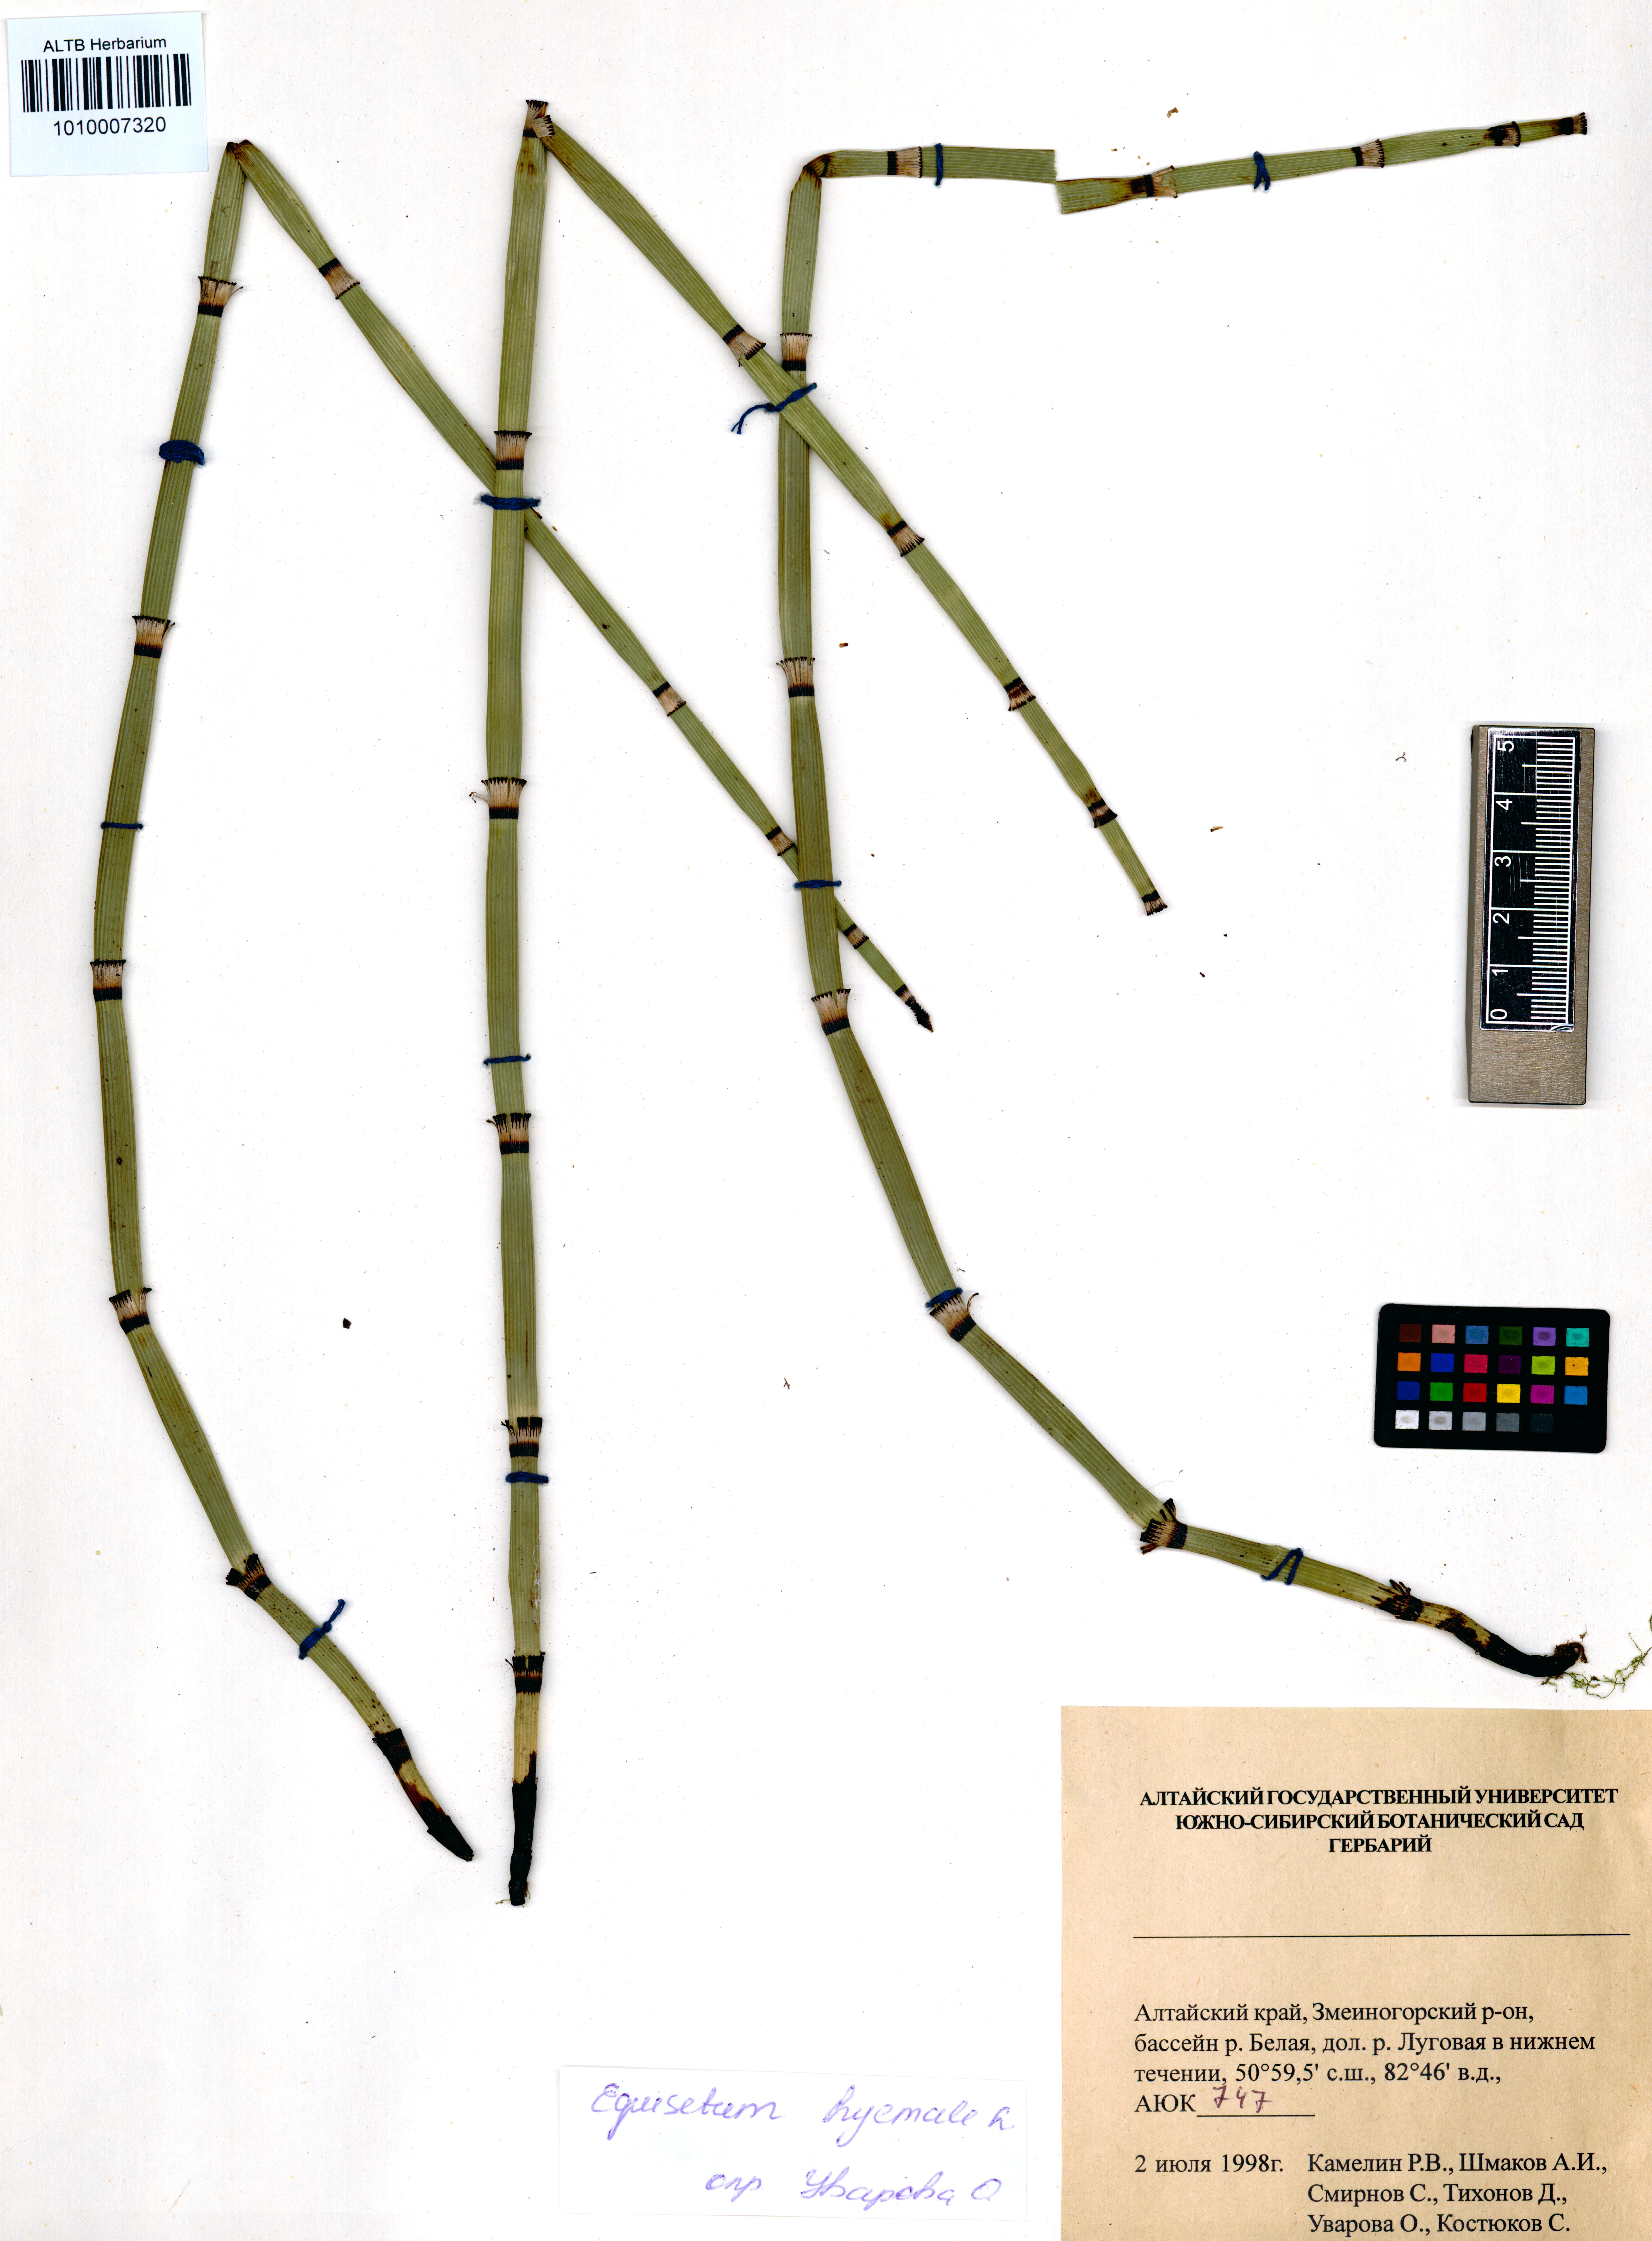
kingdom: Plantae
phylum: Tracheophyta
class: Polypodiopsida
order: Equisetales
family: Equisetaceae
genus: Equisetum
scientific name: Equisetum hyemale
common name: Rough horsetail
